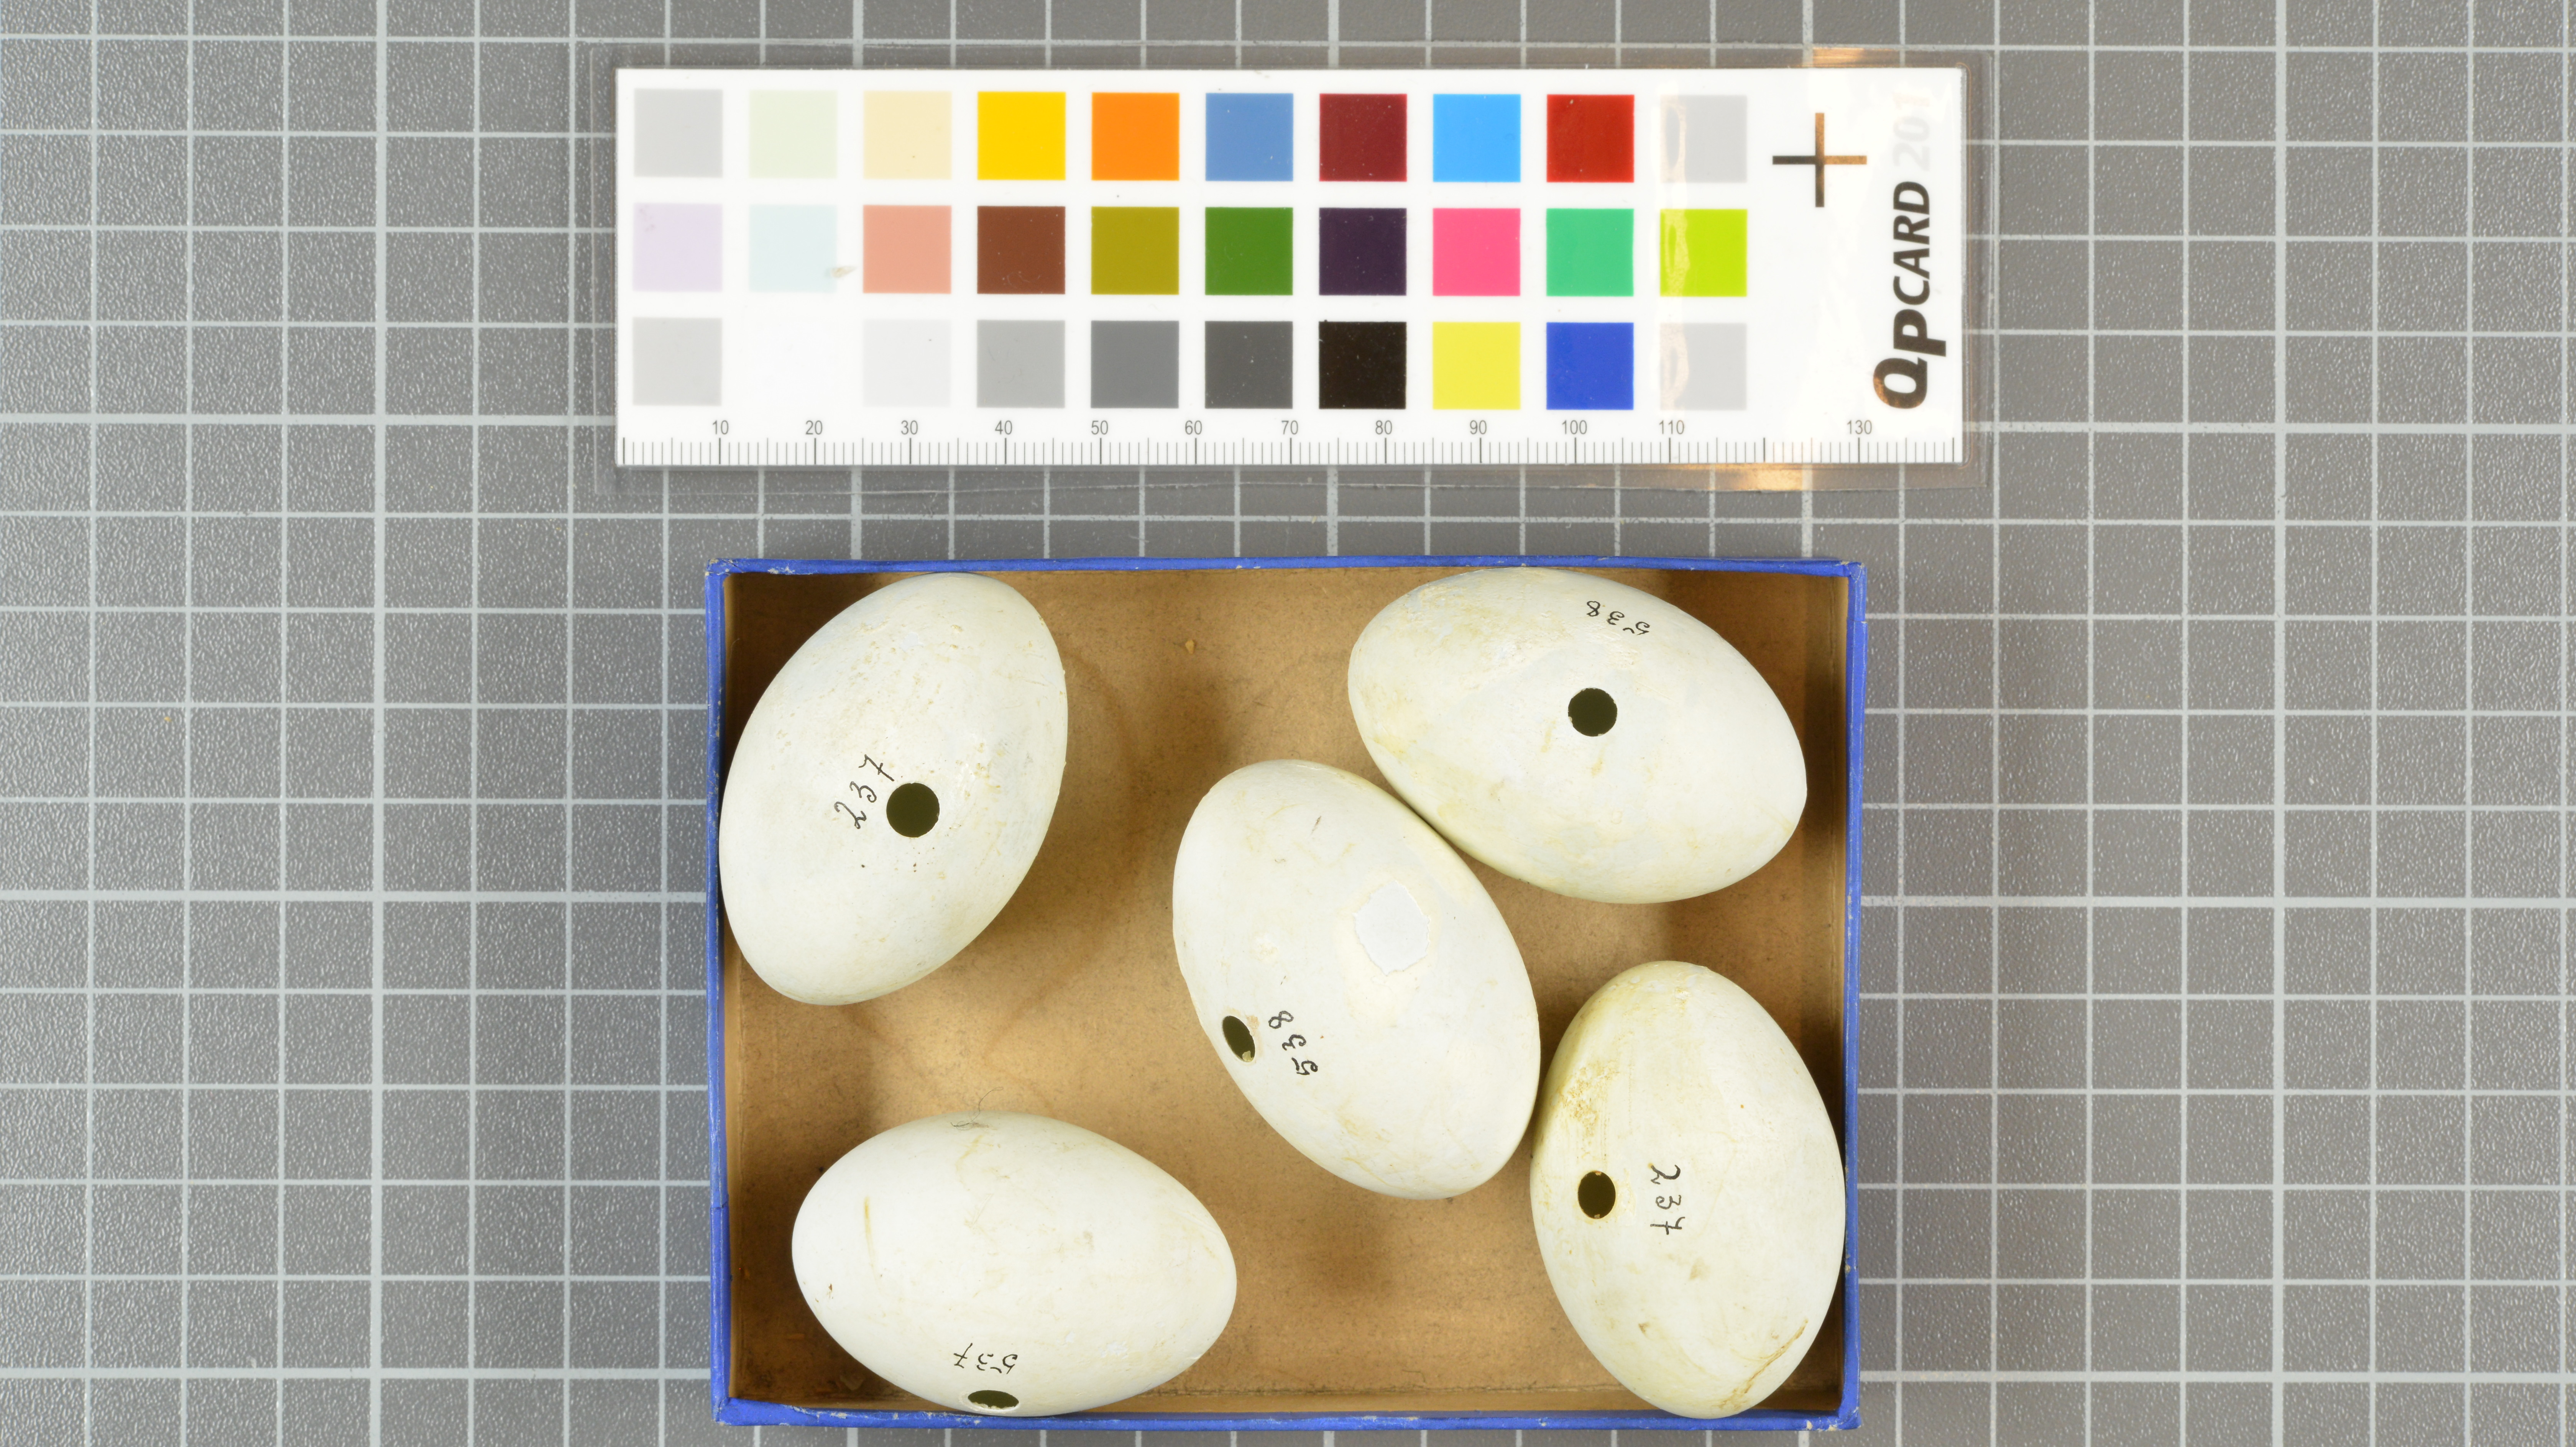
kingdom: Animalia
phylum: Chordata
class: Aves
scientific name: Aves
